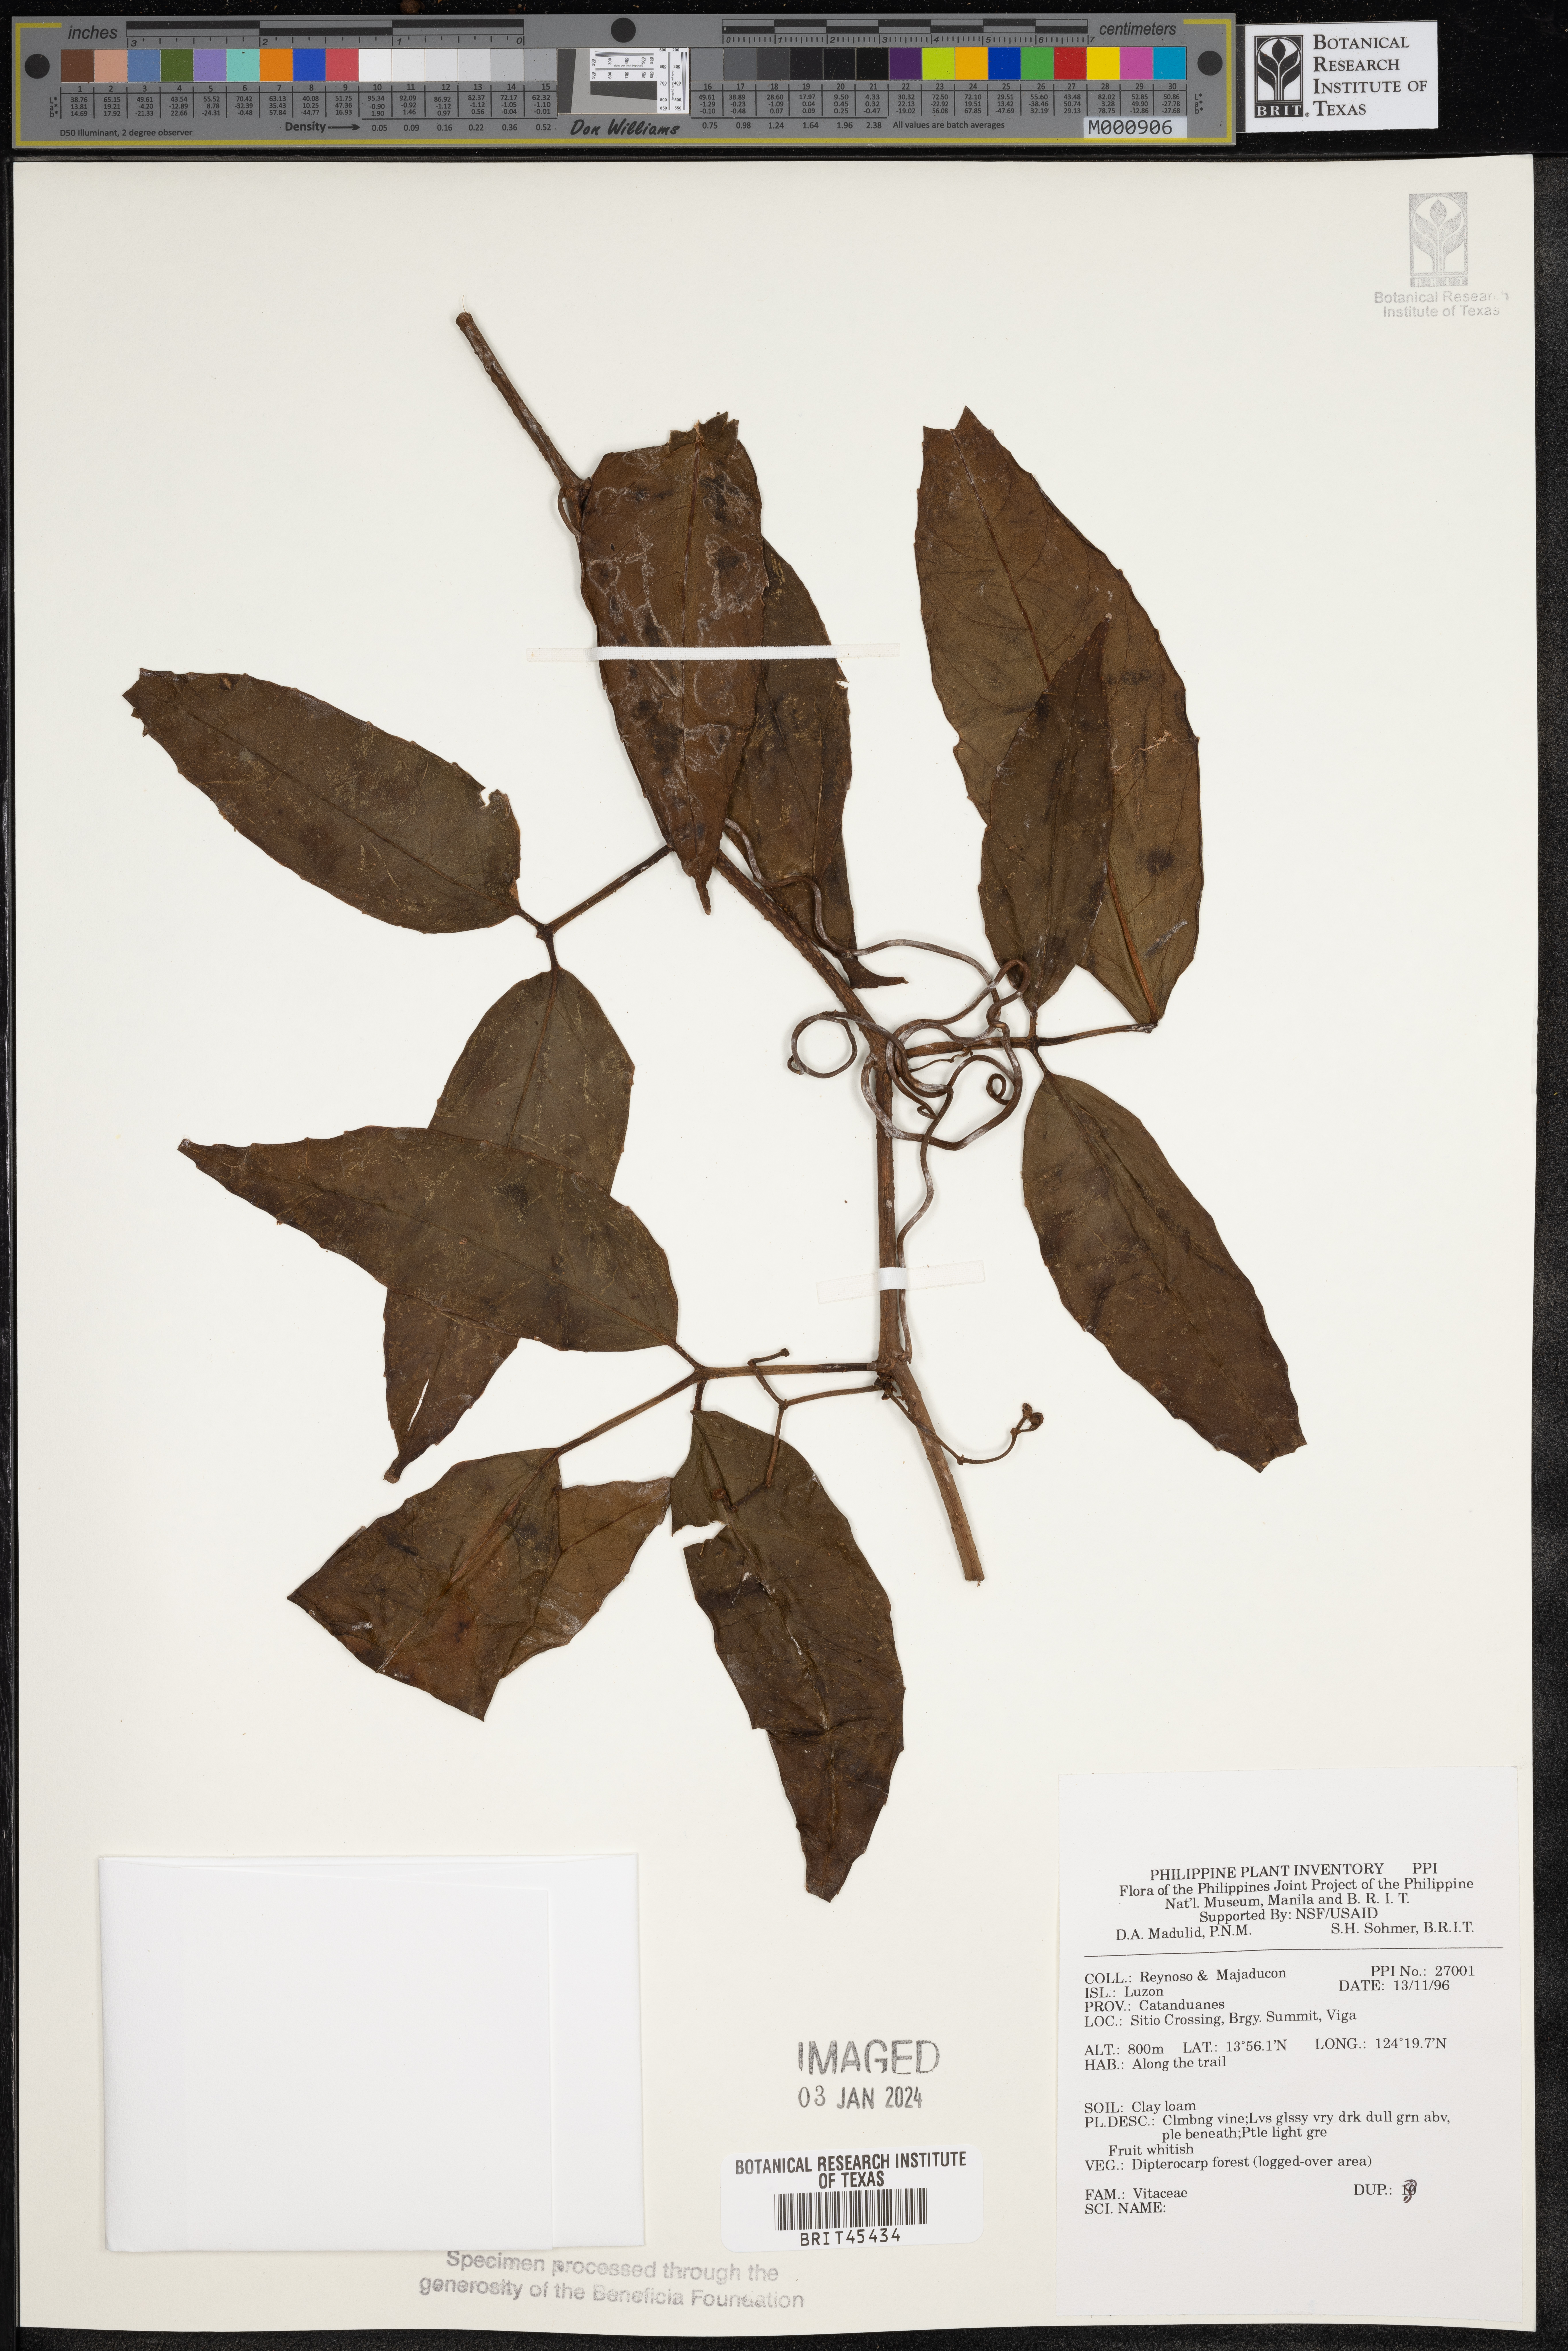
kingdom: Plantae
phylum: Tracheophyta
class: Magnoliopsida
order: Vitales
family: Vitaceae
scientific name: Vitaceae
